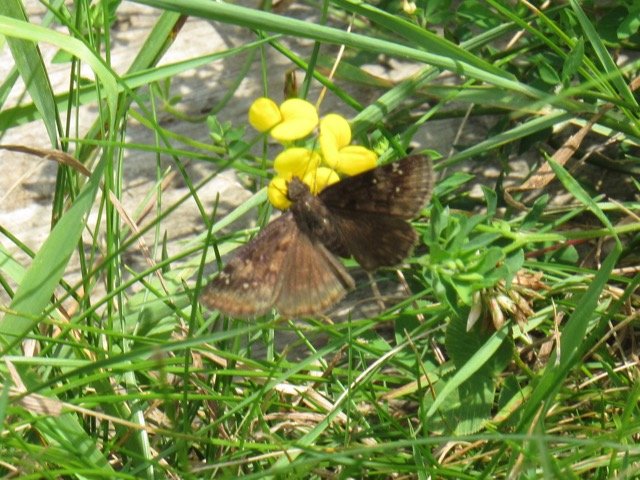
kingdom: Animalia
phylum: Arthropoda
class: Insecta
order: Lepidoptera
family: Hesperiidae
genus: Gesta
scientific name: Gesta
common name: Wild Indigo Duskywing
